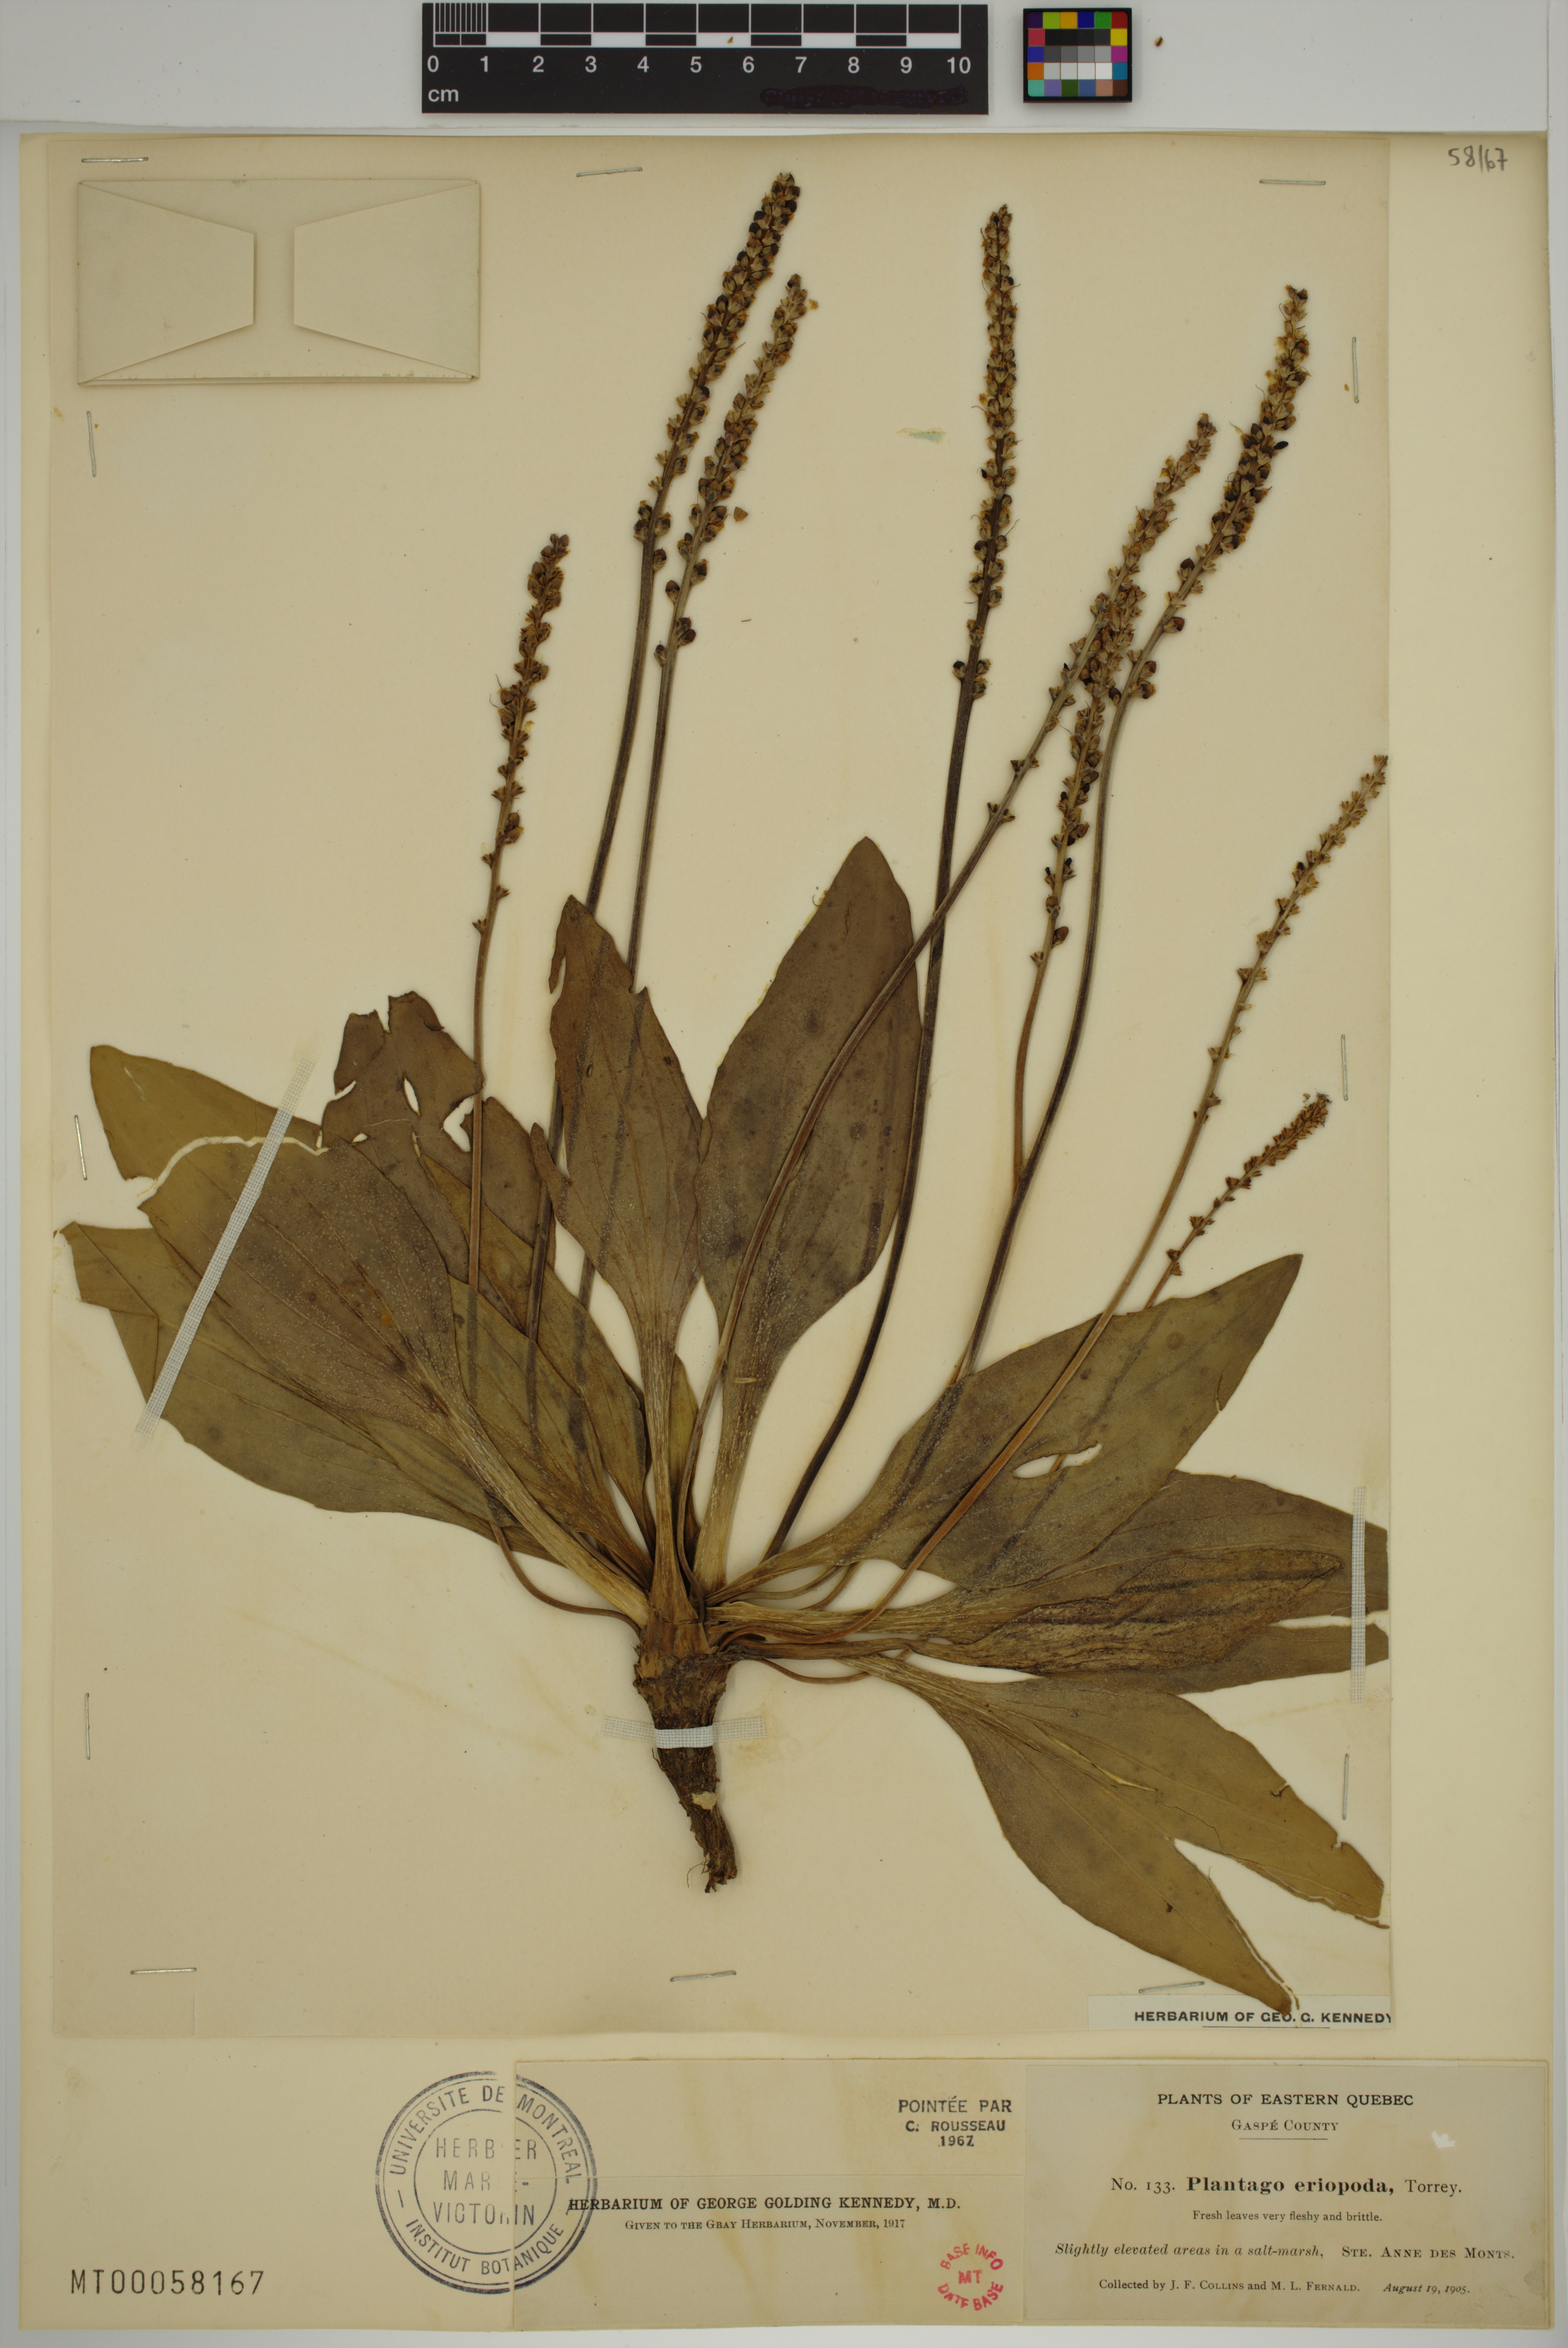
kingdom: Plantae
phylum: Tracheophyta
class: Magnoliopsida
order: Lamiales
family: Plantaginaceae
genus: Plantago
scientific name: Plantago eriopoda
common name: Alkali plantain
